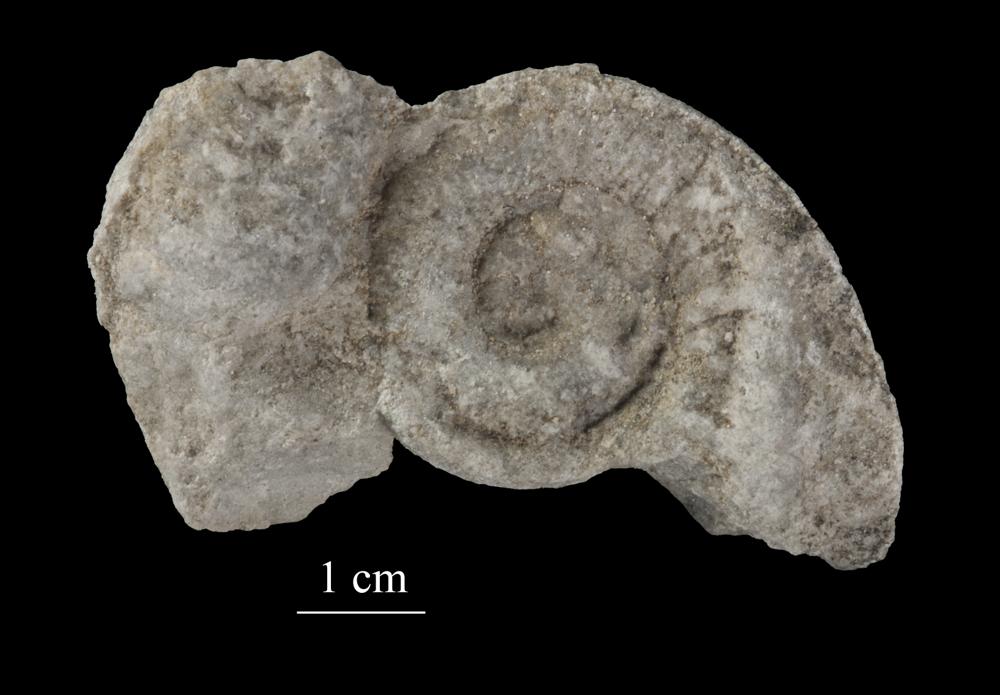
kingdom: Animalia
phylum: Mollusca
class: Gastropoda
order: Neogastropoda
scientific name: Neogastropoda
